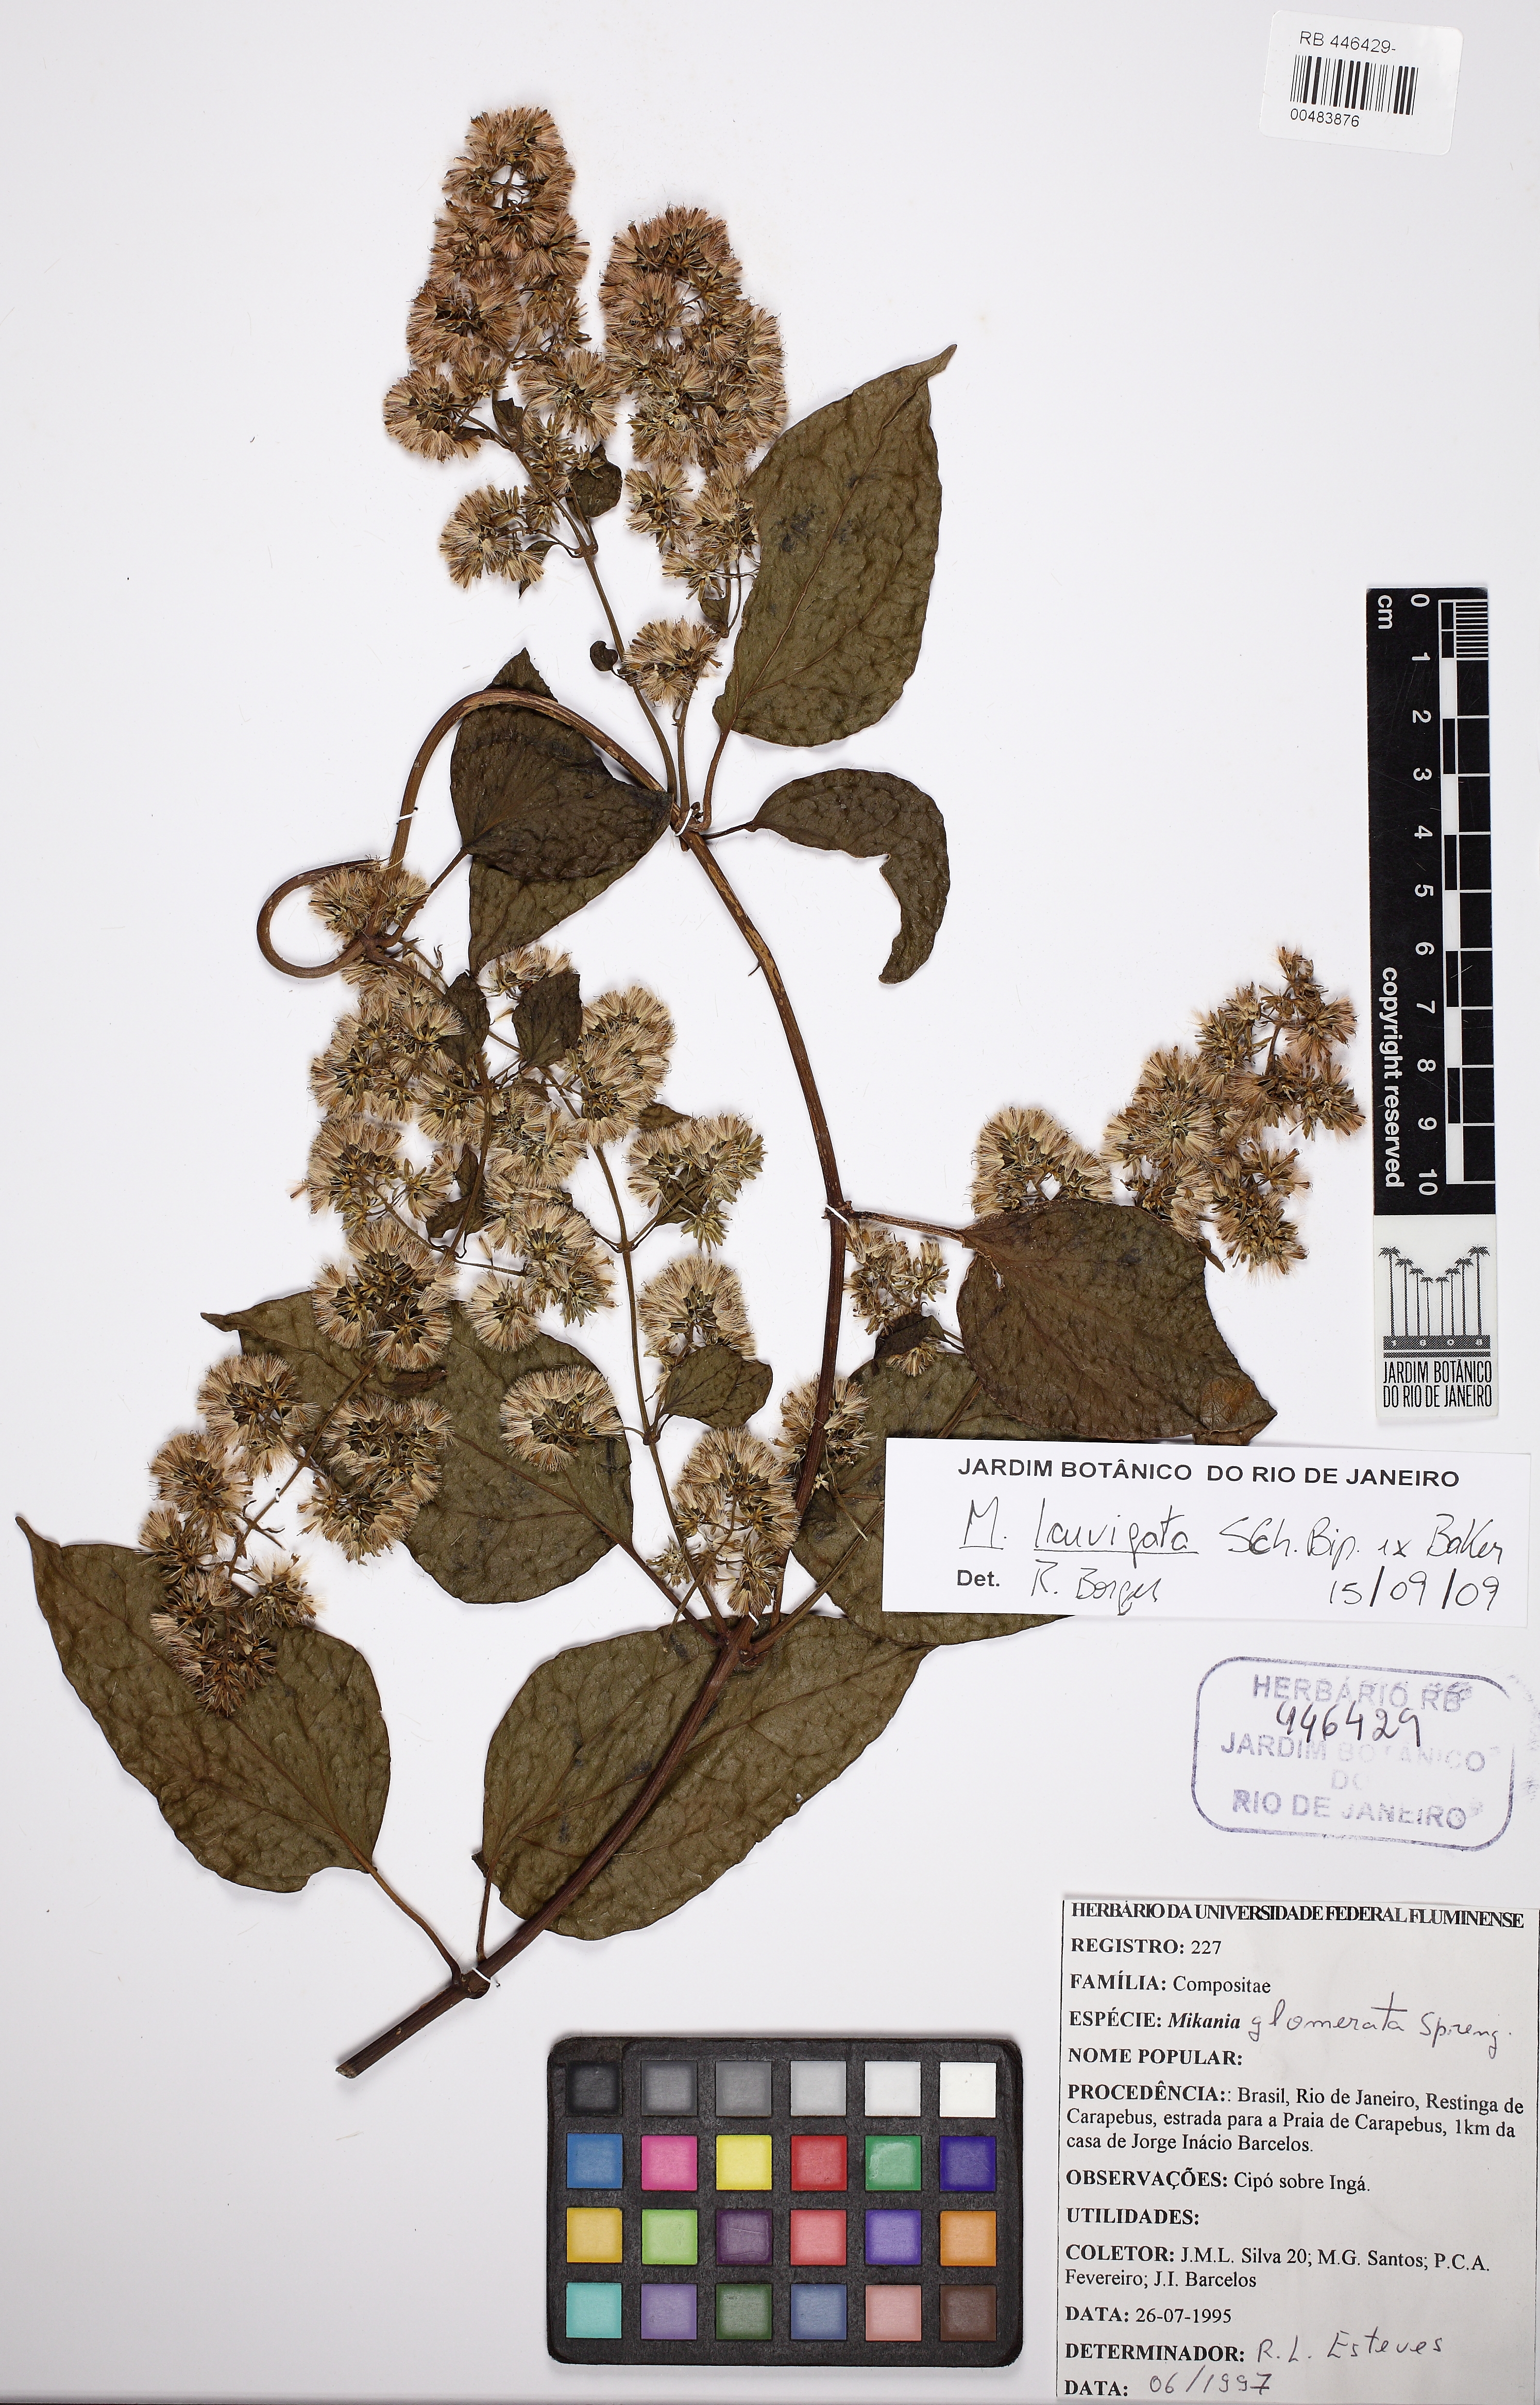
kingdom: Plantae
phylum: Tracheophyta
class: Magnoliopsida
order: Asterales
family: Asteraceae
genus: Mikania
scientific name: Mikania laevigata
